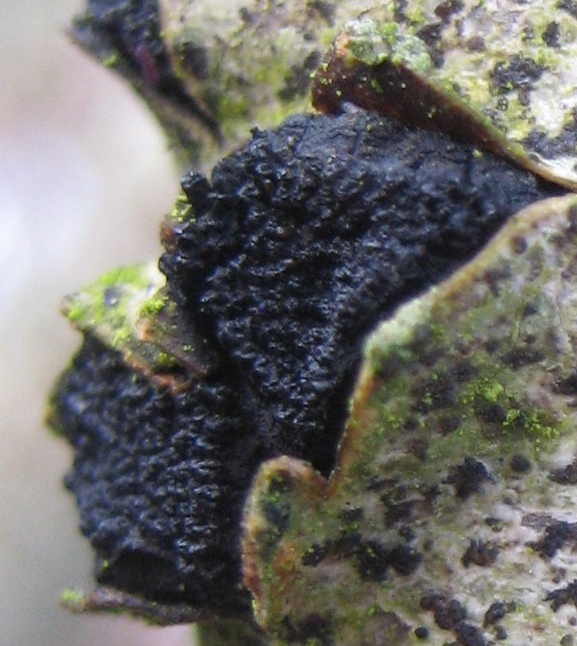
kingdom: Fungi
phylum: Ascomycota
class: Sordariomycetes
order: Xylariales
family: Diatrypaceae
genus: Eutypella
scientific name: Eutypella sorbi
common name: rønne-kulskorpe
